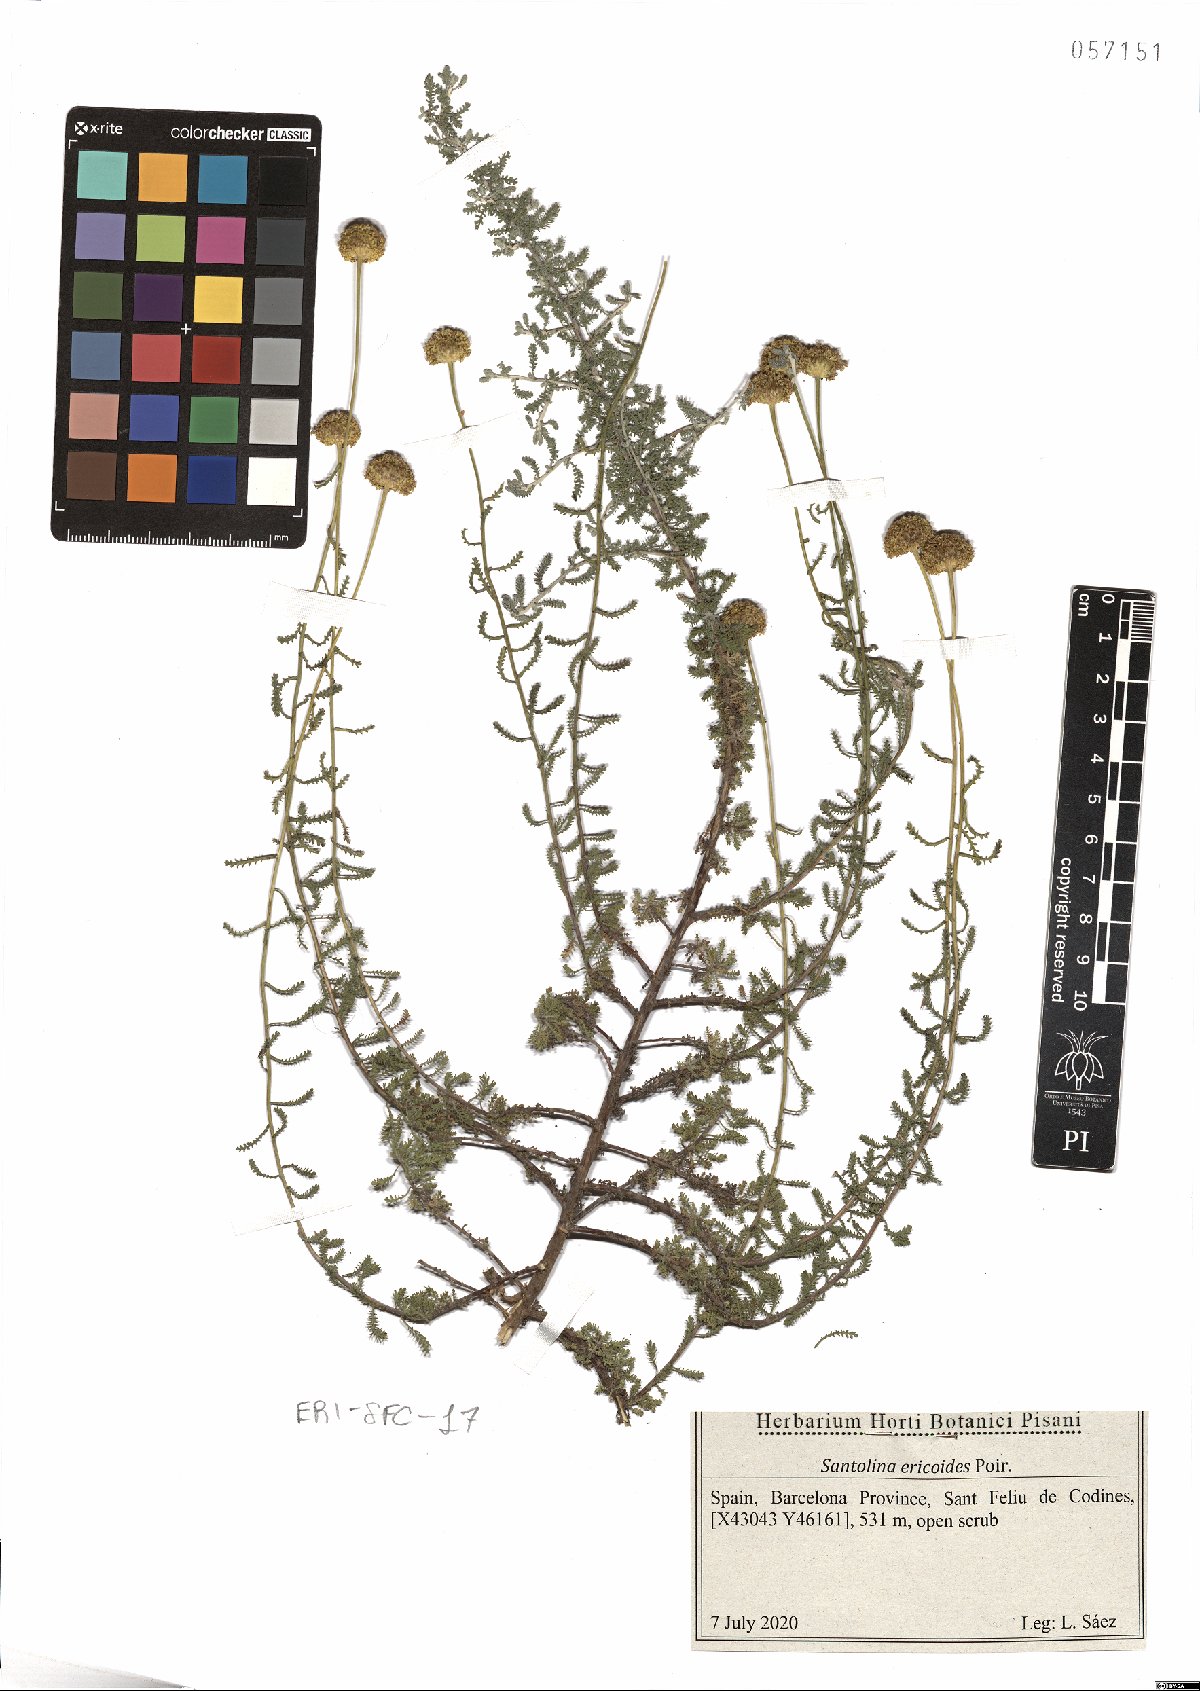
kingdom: Plantae
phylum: Tracheophyta
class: Magnoliopsida
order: Asterales
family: Asteraceae
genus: Santolina
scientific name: Santolina ericoides
